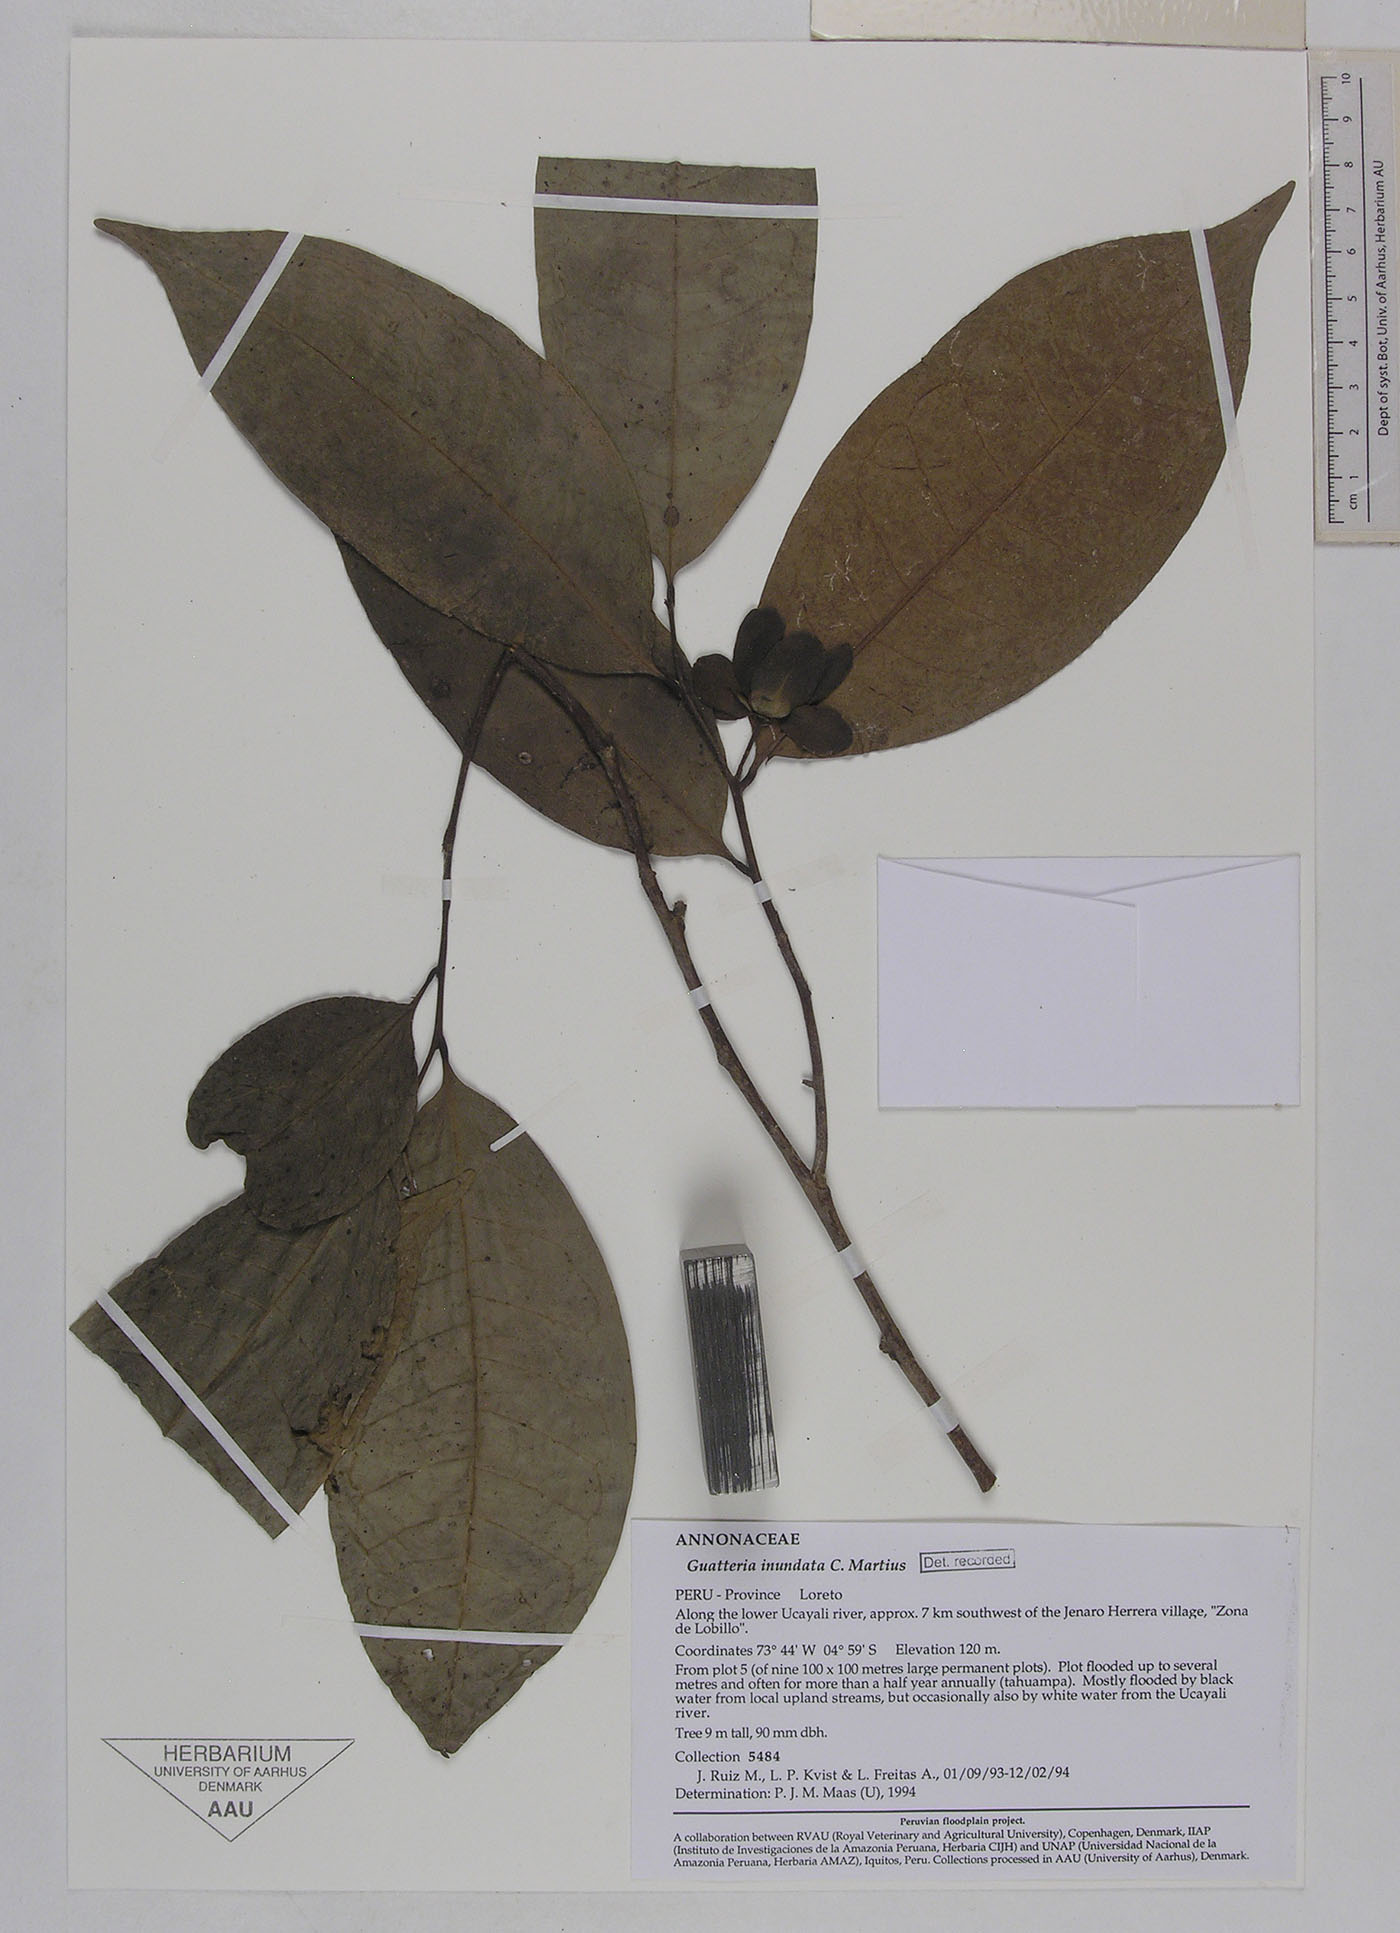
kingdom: Plantae
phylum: Tracheophyta
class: Magnoliopsida
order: Magnoliales
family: Annonaceae
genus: Guatteria
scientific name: Guatteria inundata
